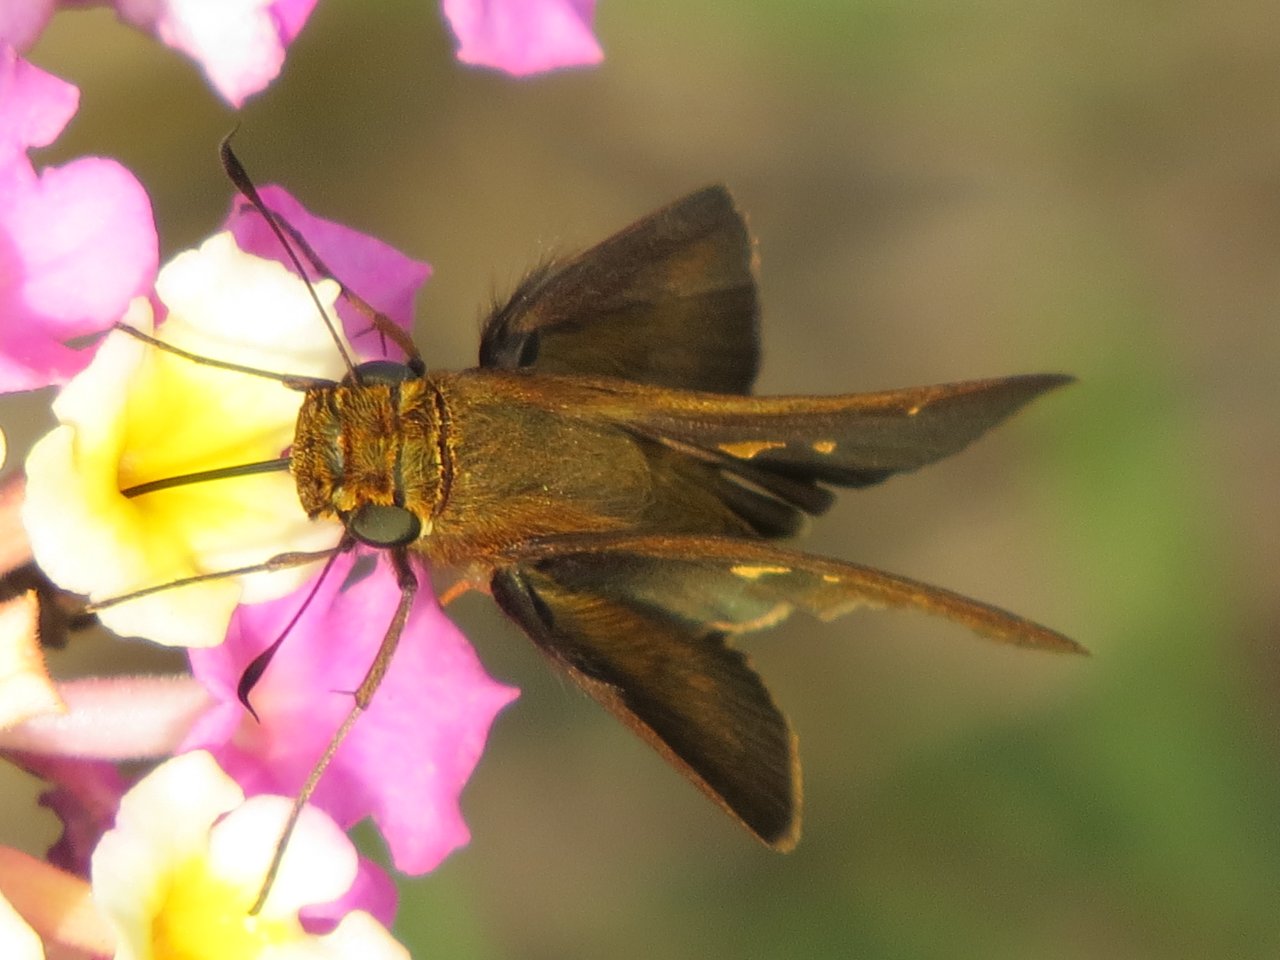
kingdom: Animalia
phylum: Arthropoda
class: Insecta
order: Lepidoptera
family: Hesperiidae
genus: Panoquina
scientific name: Panoquina ocola
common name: Ocola Skipper
